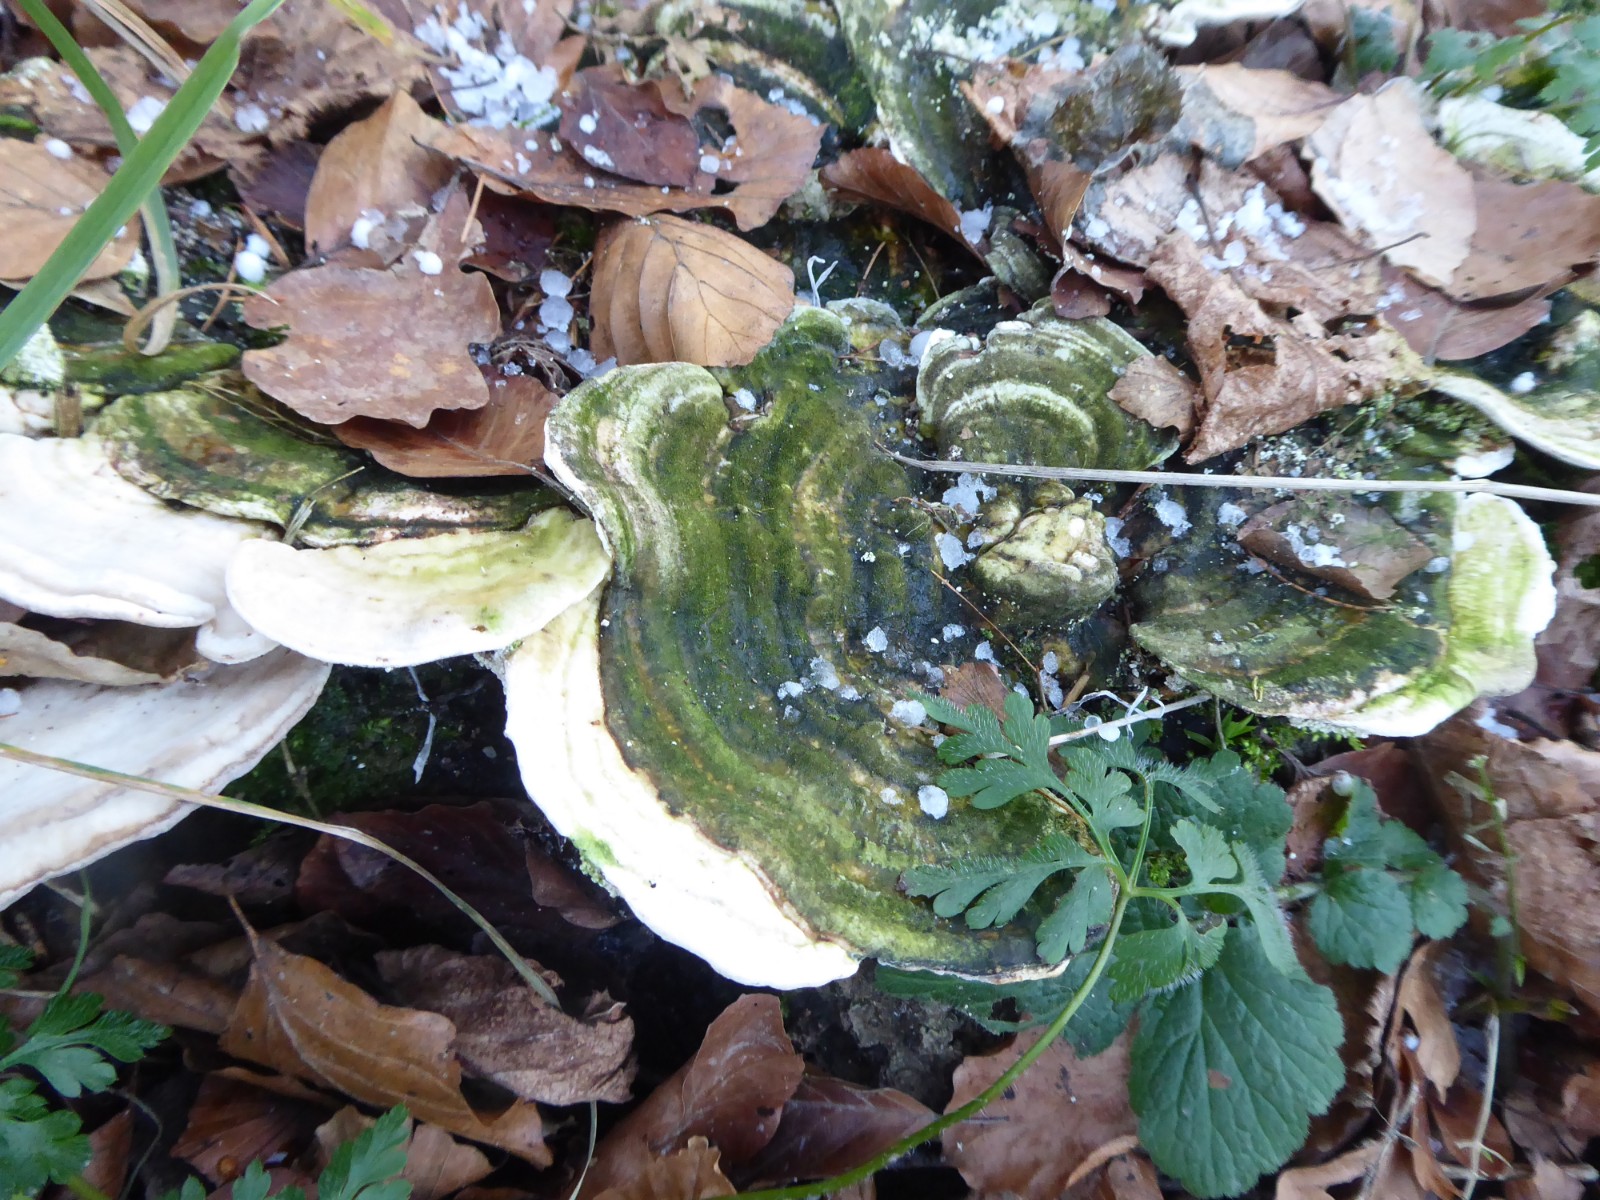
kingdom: Fungi
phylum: Basidiomycota
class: Agaricomycetes
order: Polyporales
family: Polyporaceae
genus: Trametes
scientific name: Trametes gibbosa
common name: puklet læderporesvamp
